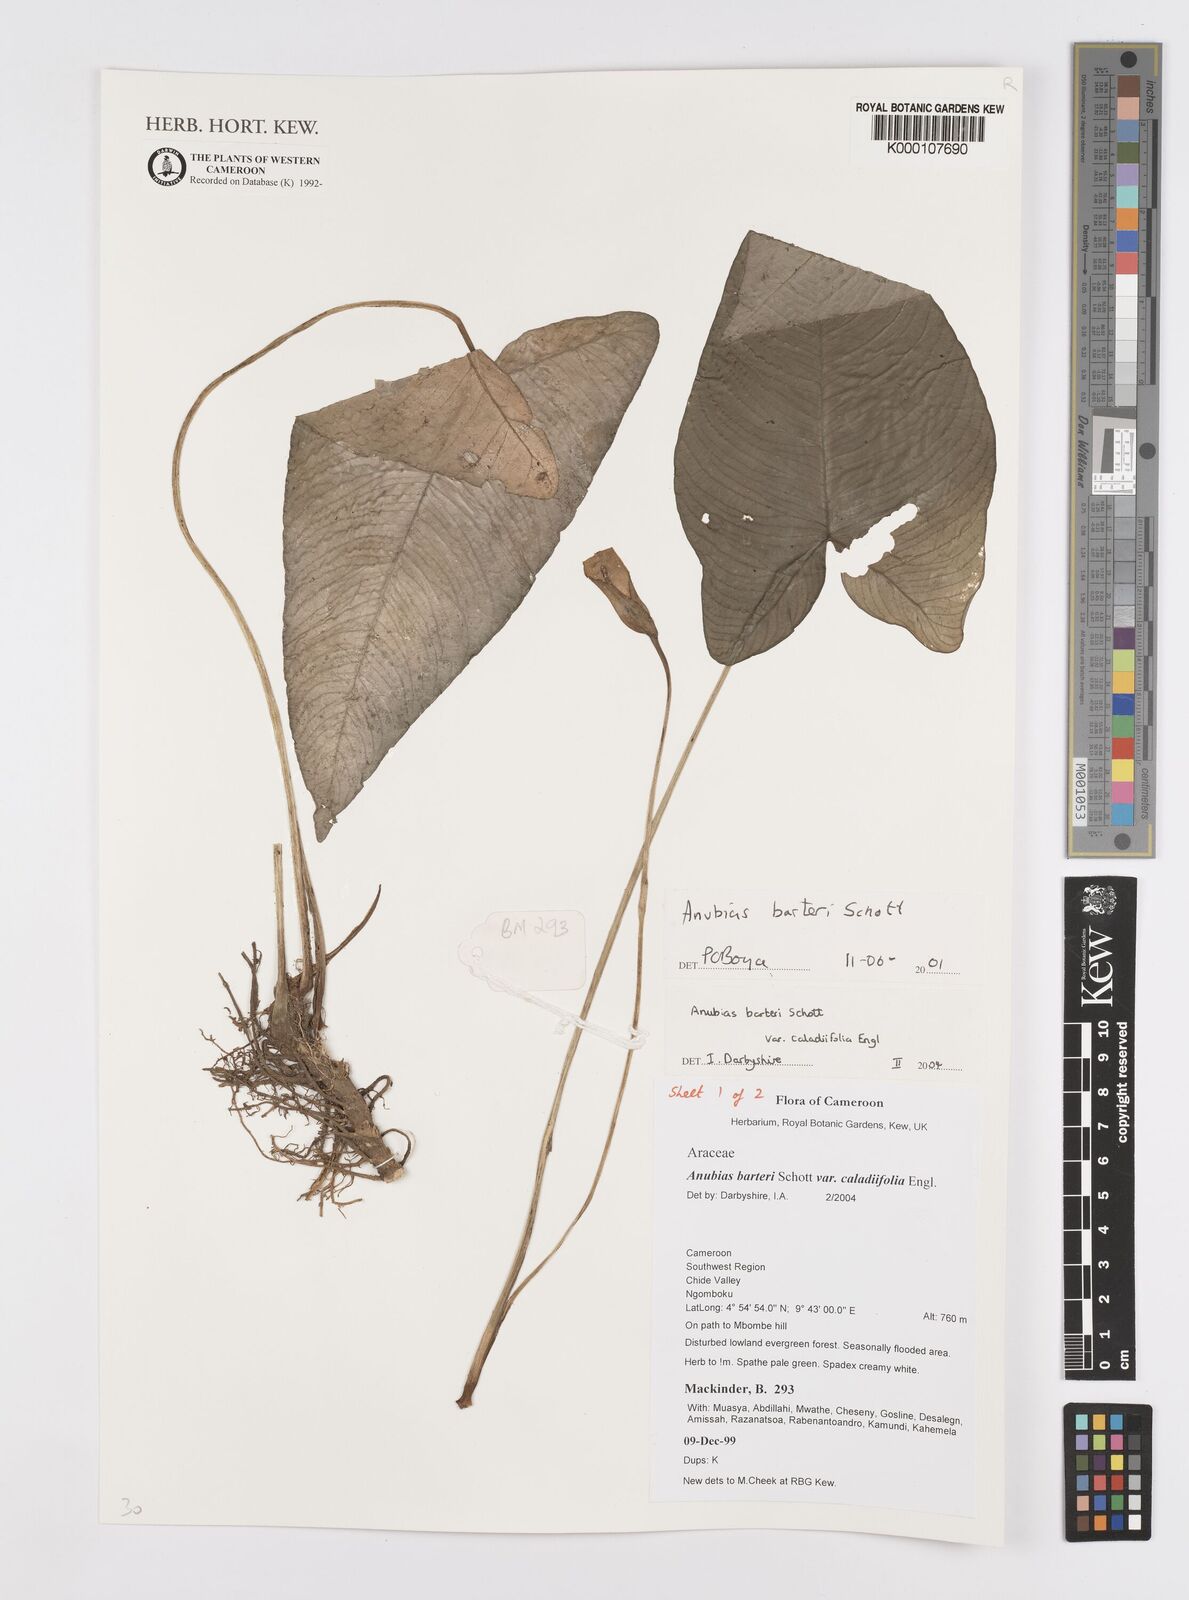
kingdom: Plantae
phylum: Tracheophyta
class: Liliopsida
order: Alismatales
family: Araceae
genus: Anubias
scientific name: Anubias barteri
